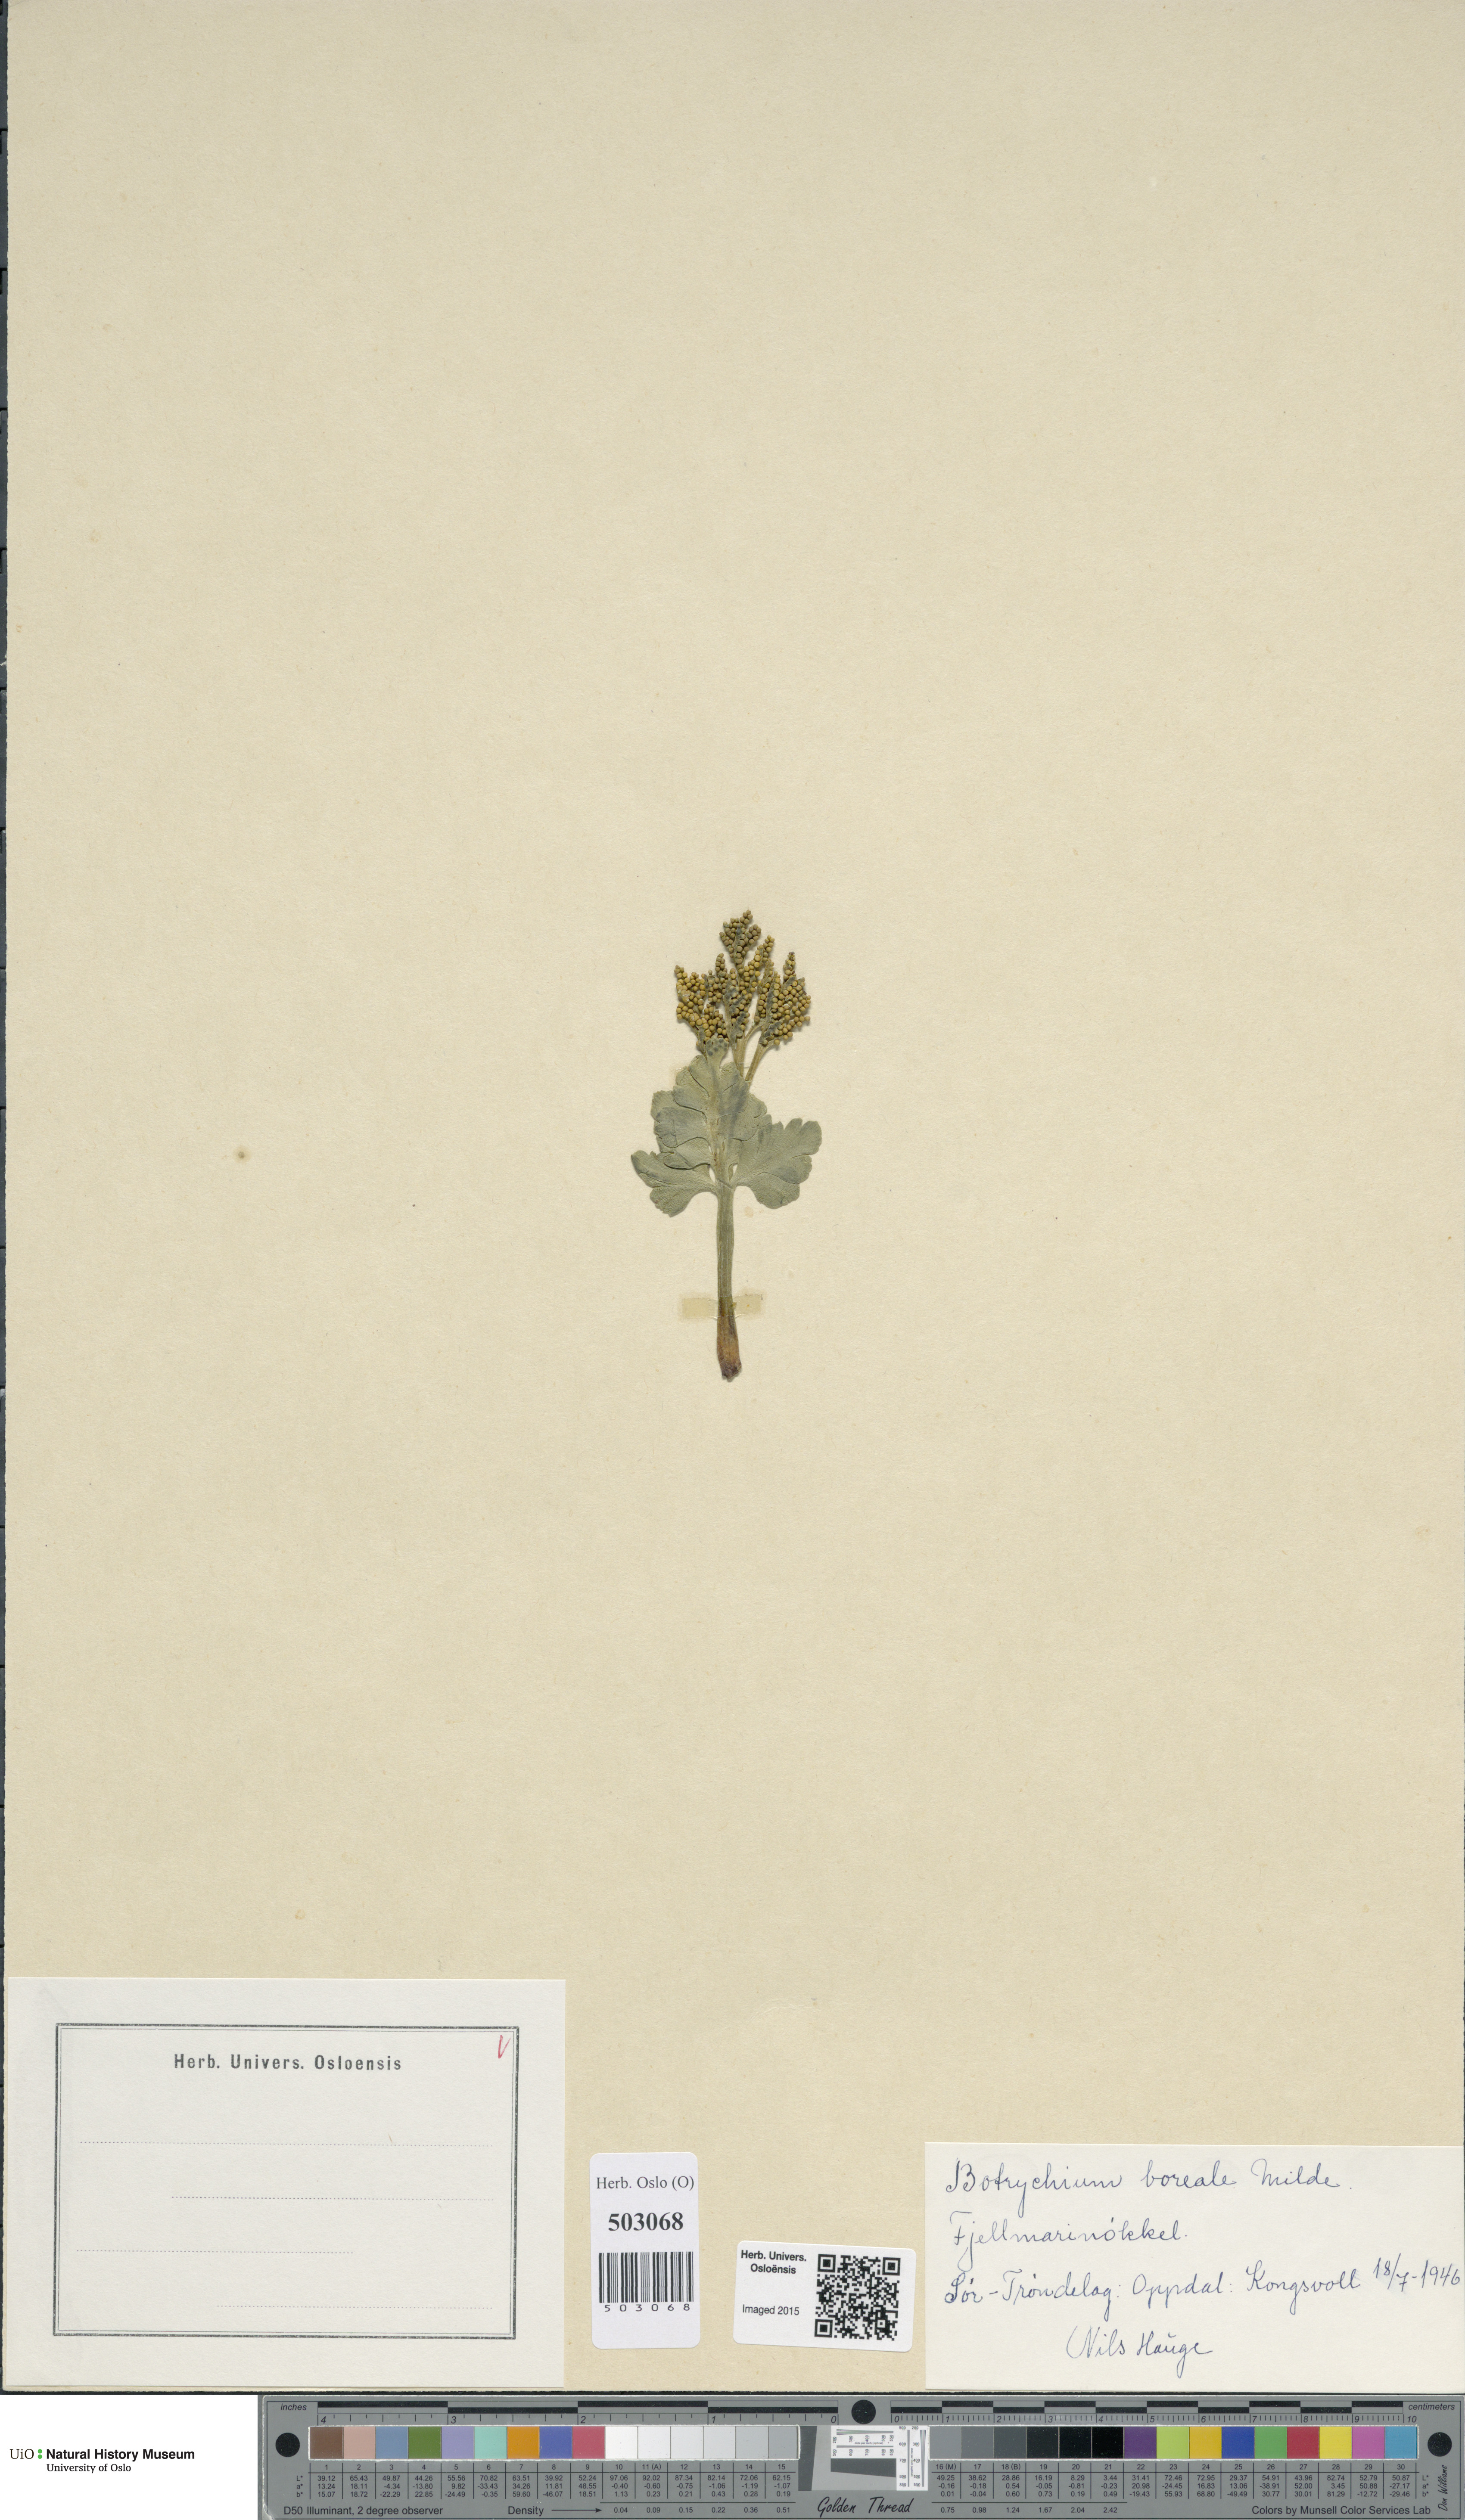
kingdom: Plantae
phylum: Tracheophyta
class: Polypodiopsida
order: Ophioglossales
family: Ophioglossaceae
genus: Botrychium
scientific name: Botrychium boreale
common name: Boreal moonwort
